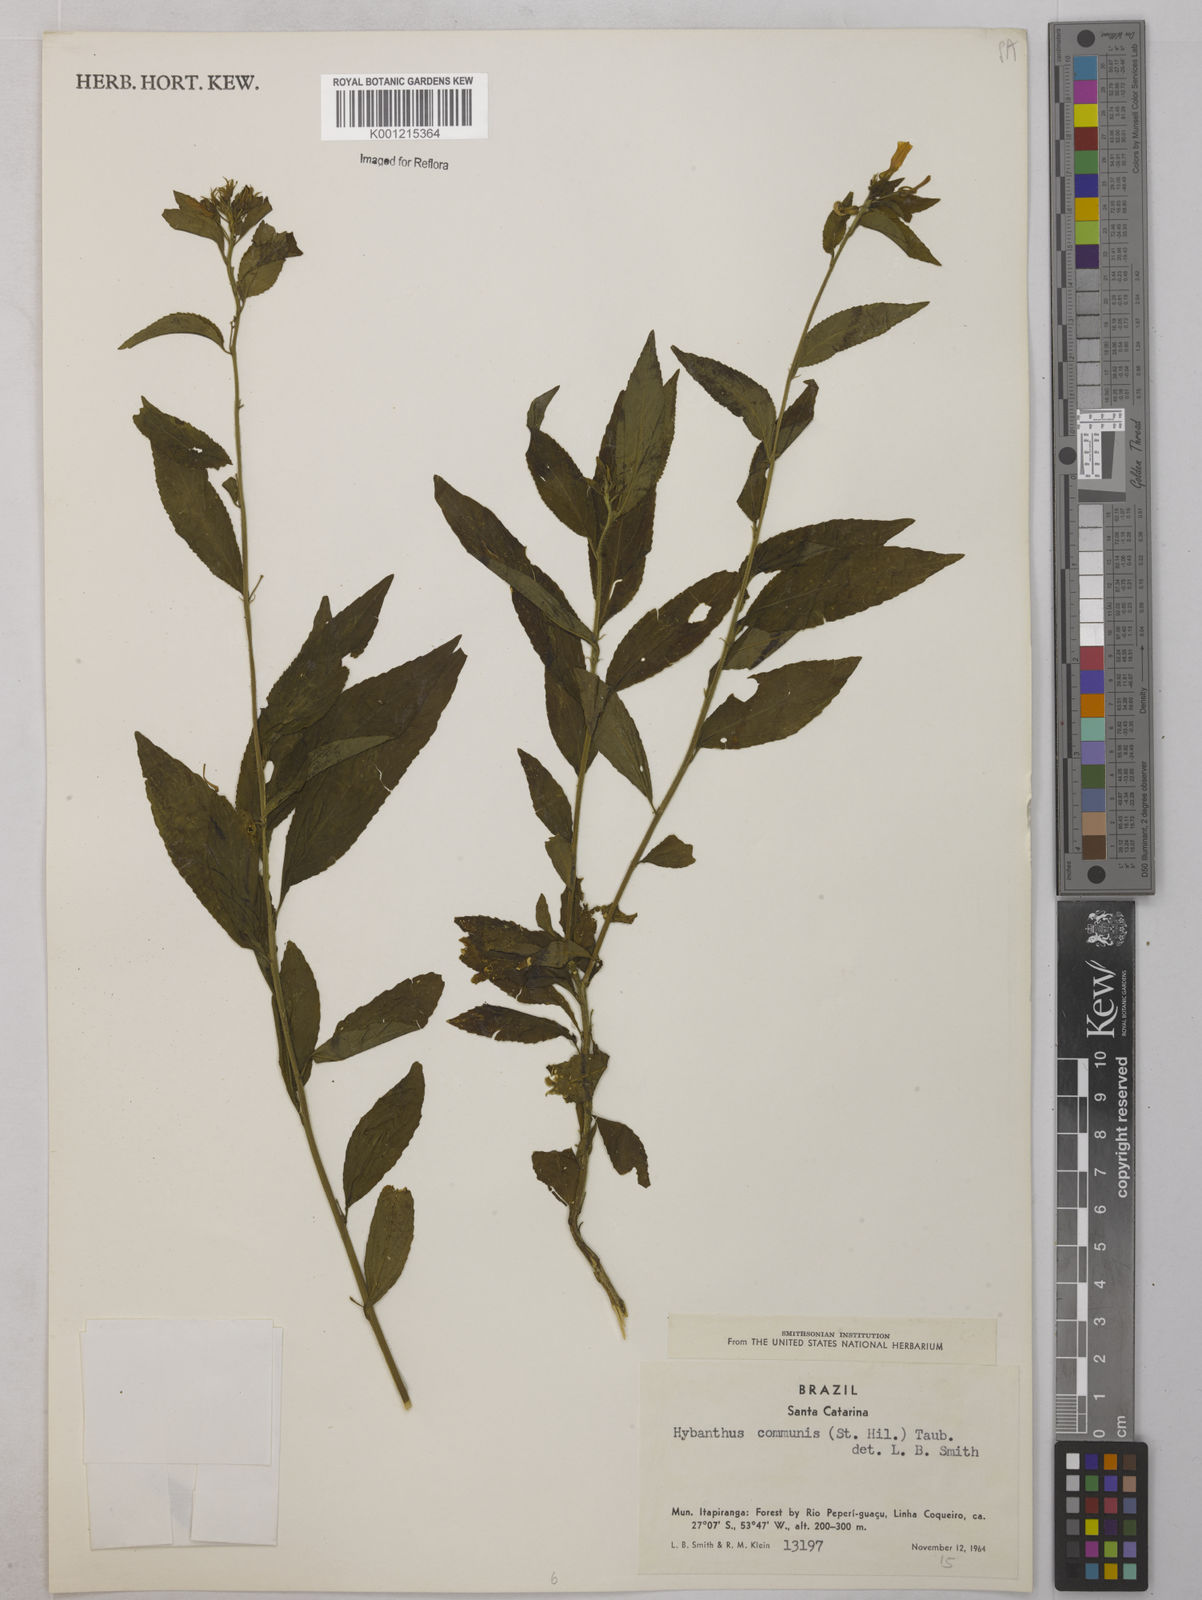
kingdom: Plantae
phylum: Tracheophyta
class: Magnoliopsida
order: Malpighiales
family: Violaceae
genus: Pombalia
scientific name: Pombalia communis
